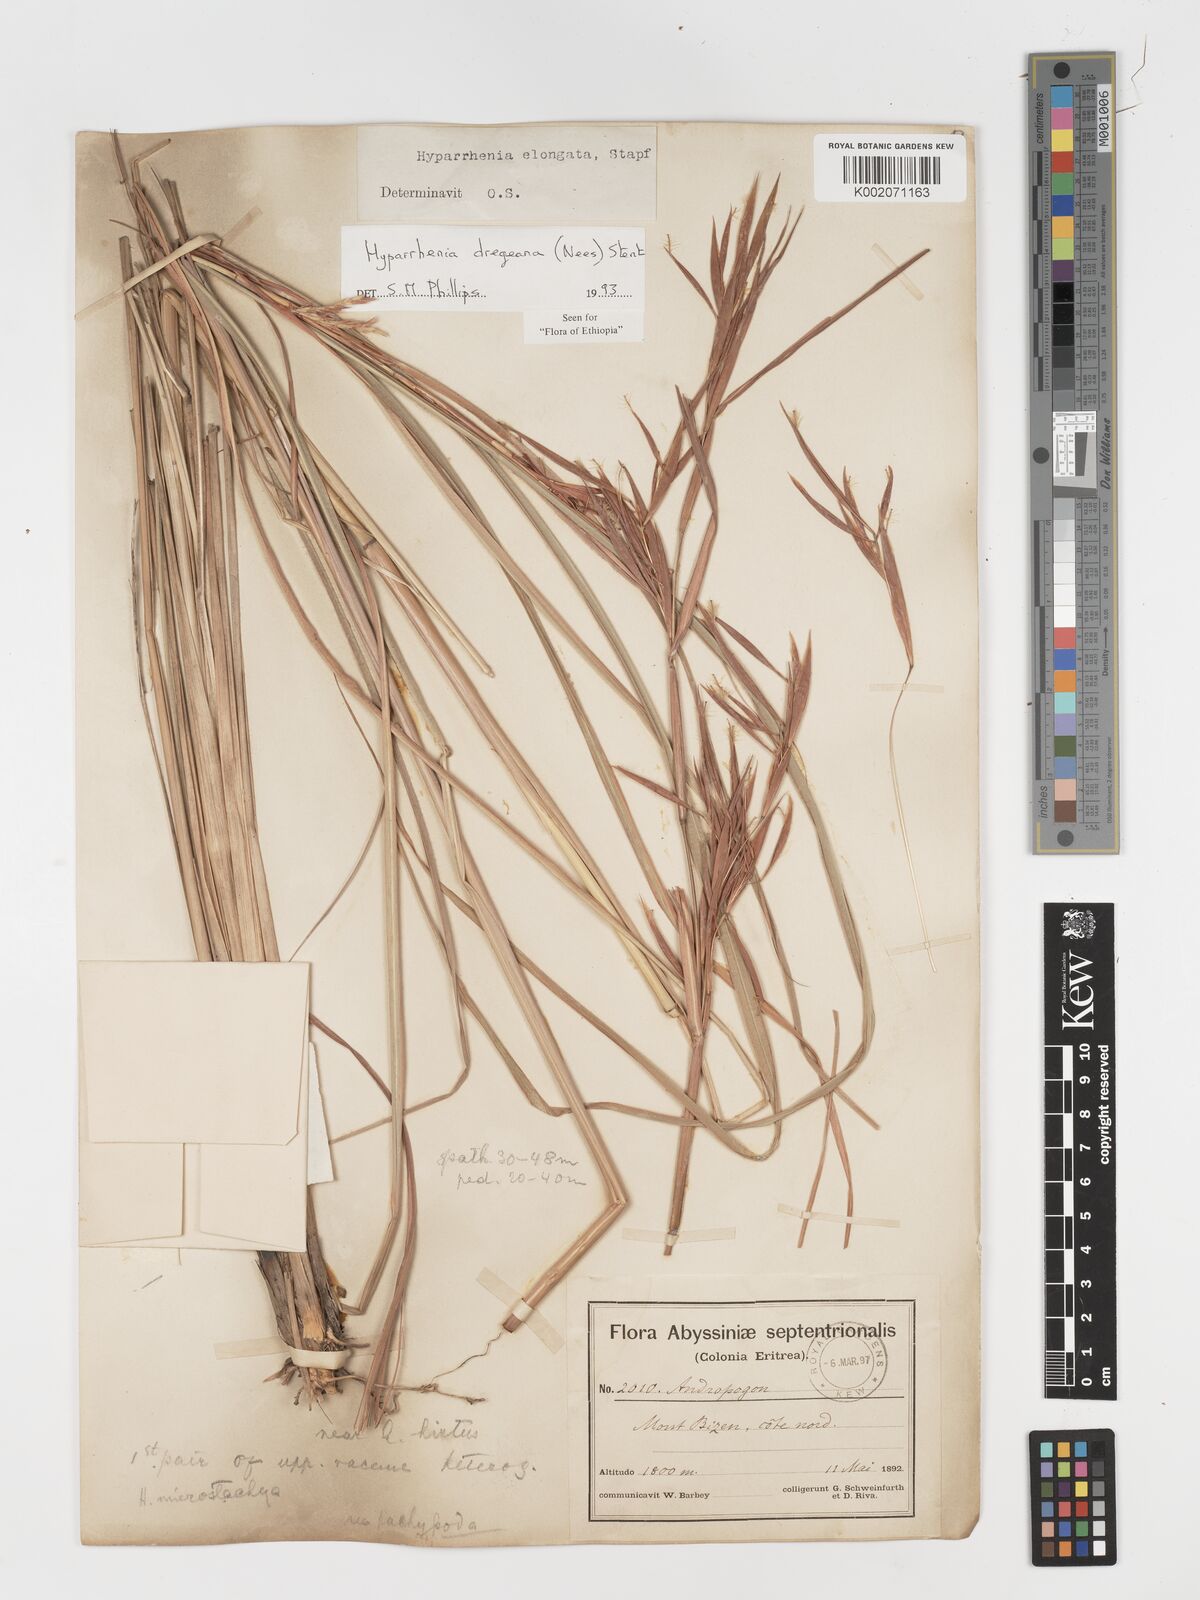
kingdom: Plantae
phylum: Tracheophyta
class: Liliopsida
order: Poales
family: Poaceae
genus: Hyparrhenia
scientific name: Hyparrhenia dregeana
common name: Silky thatching grass
